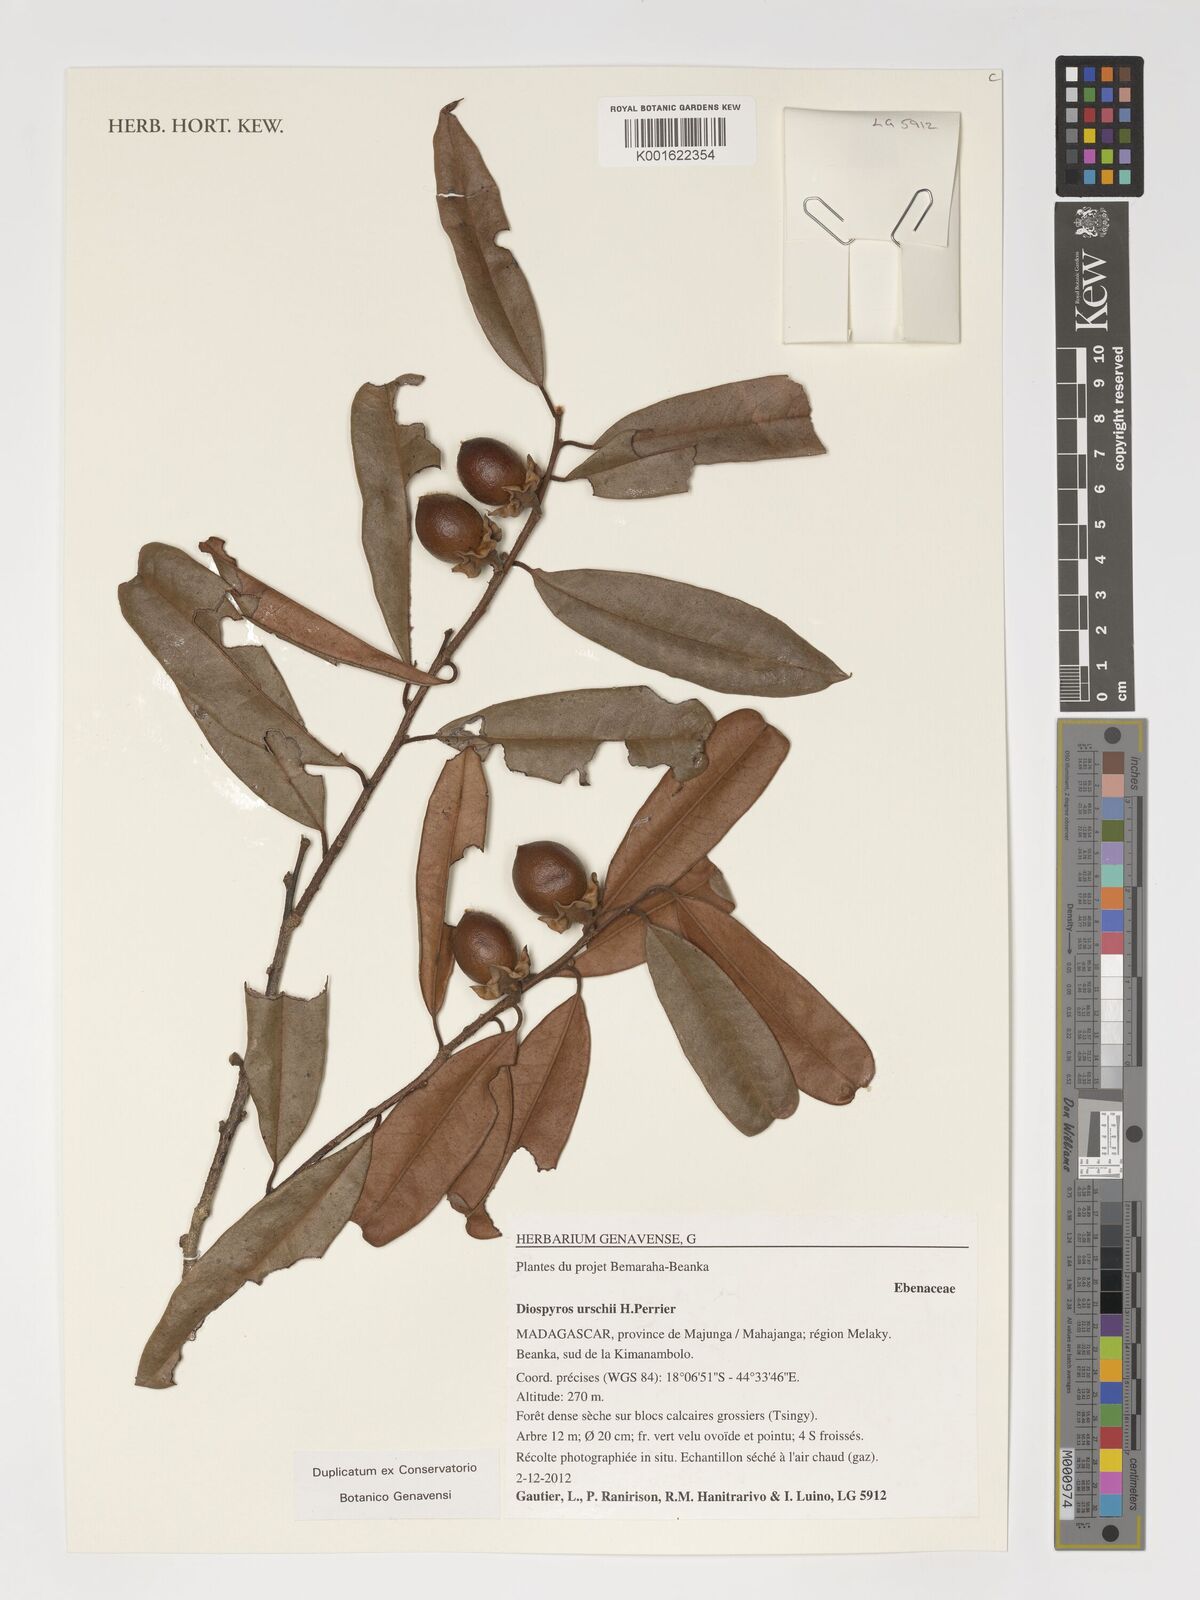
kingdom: Plantae
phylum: Tracheophyta
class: Magnoliopsida
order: Ericales
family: Ebenaceae
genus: Diospyros
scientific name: Diospyros urschii
